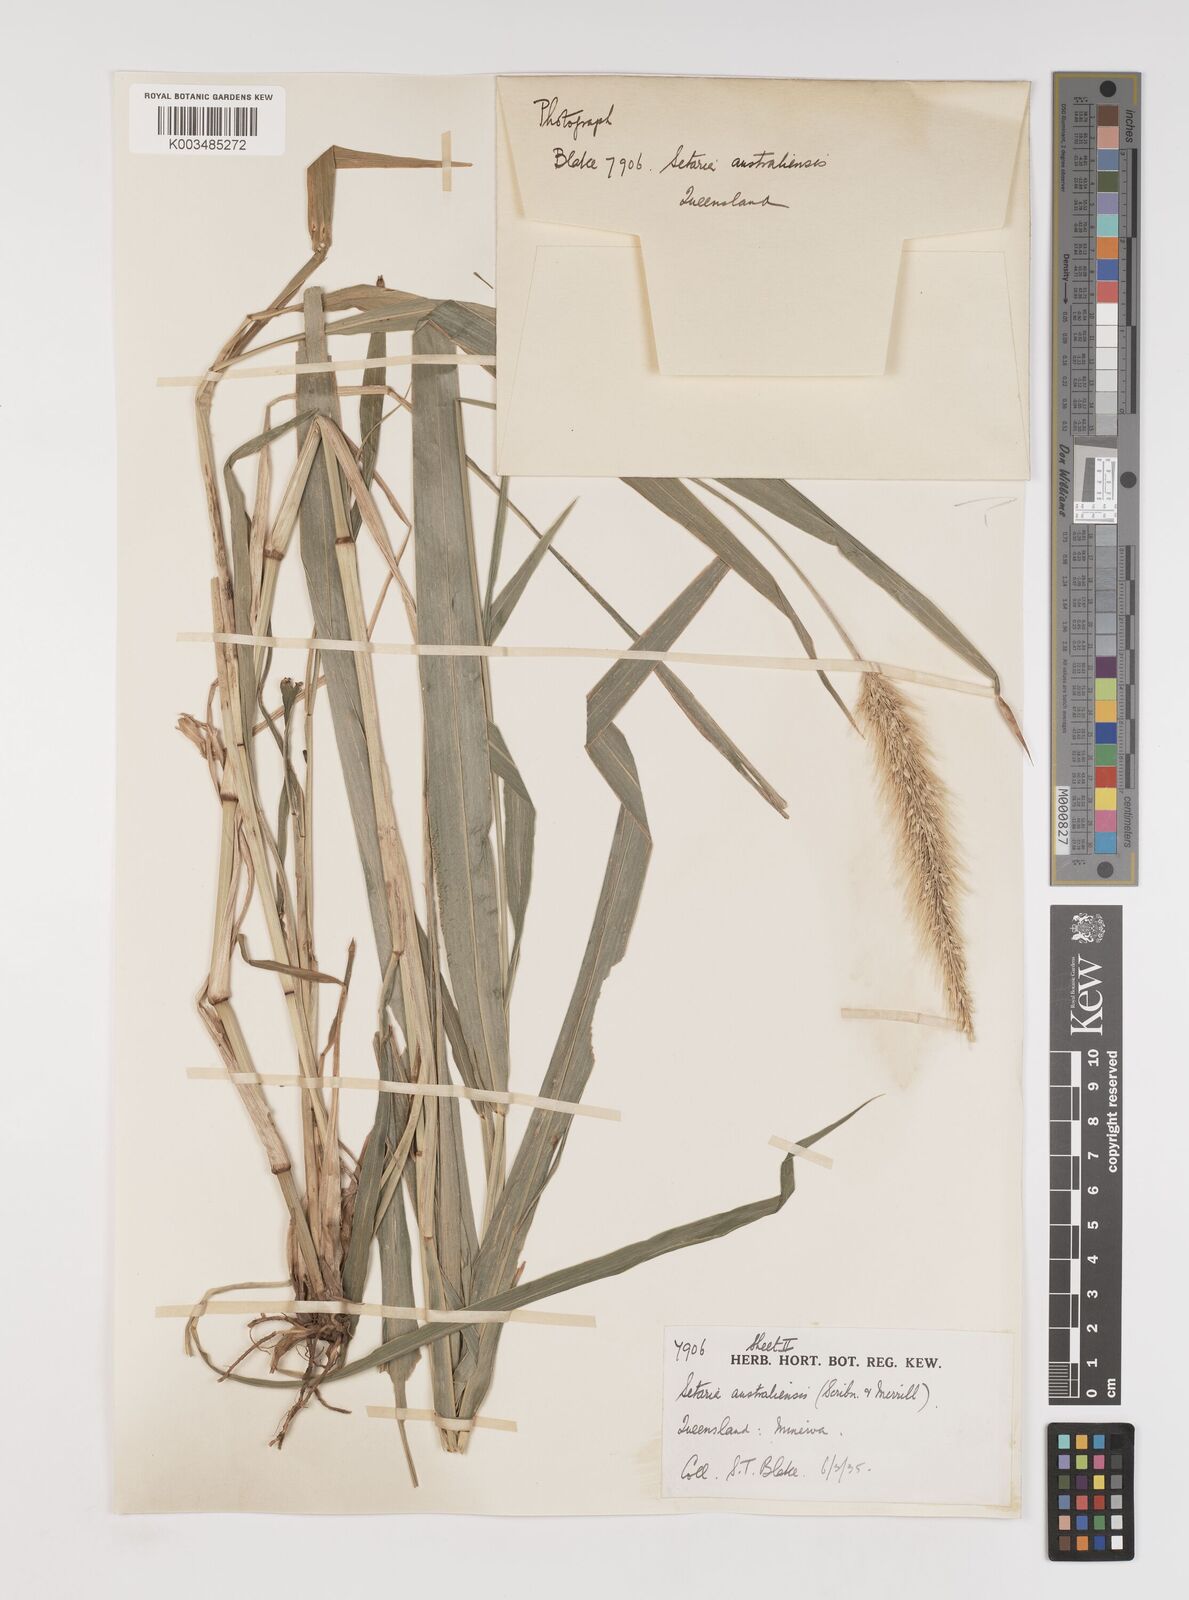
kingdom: Plantae
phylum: Tracheophyta
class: Liliopsida
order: Poales
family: Poaceae
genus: Setaria
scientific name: Setaria australiensis
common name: Scrub pigeon grass
